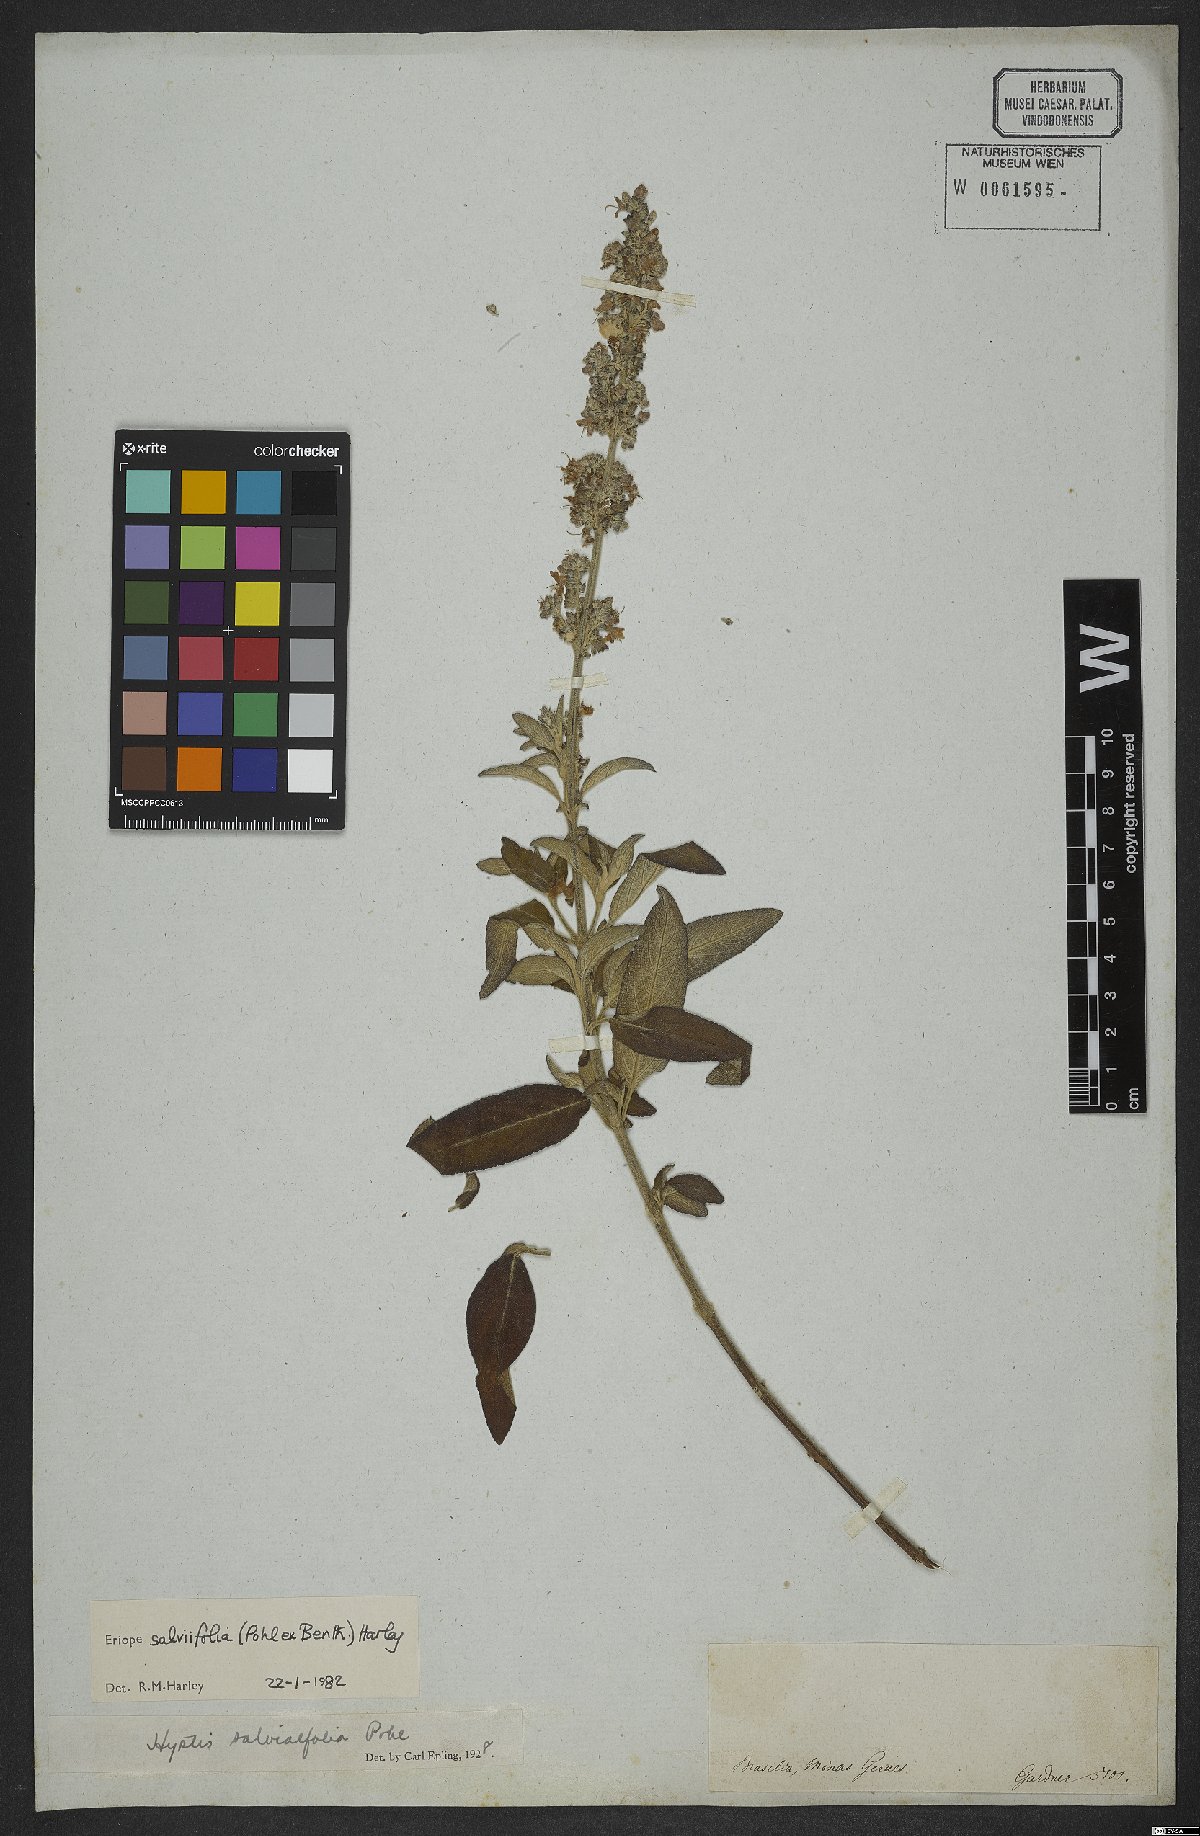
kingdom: Plantae
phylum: Tracheophyta
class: Magnoliopsida
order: Lamiales
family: Lamiaceae
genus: Eriope
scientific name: Eriope salviifolia
